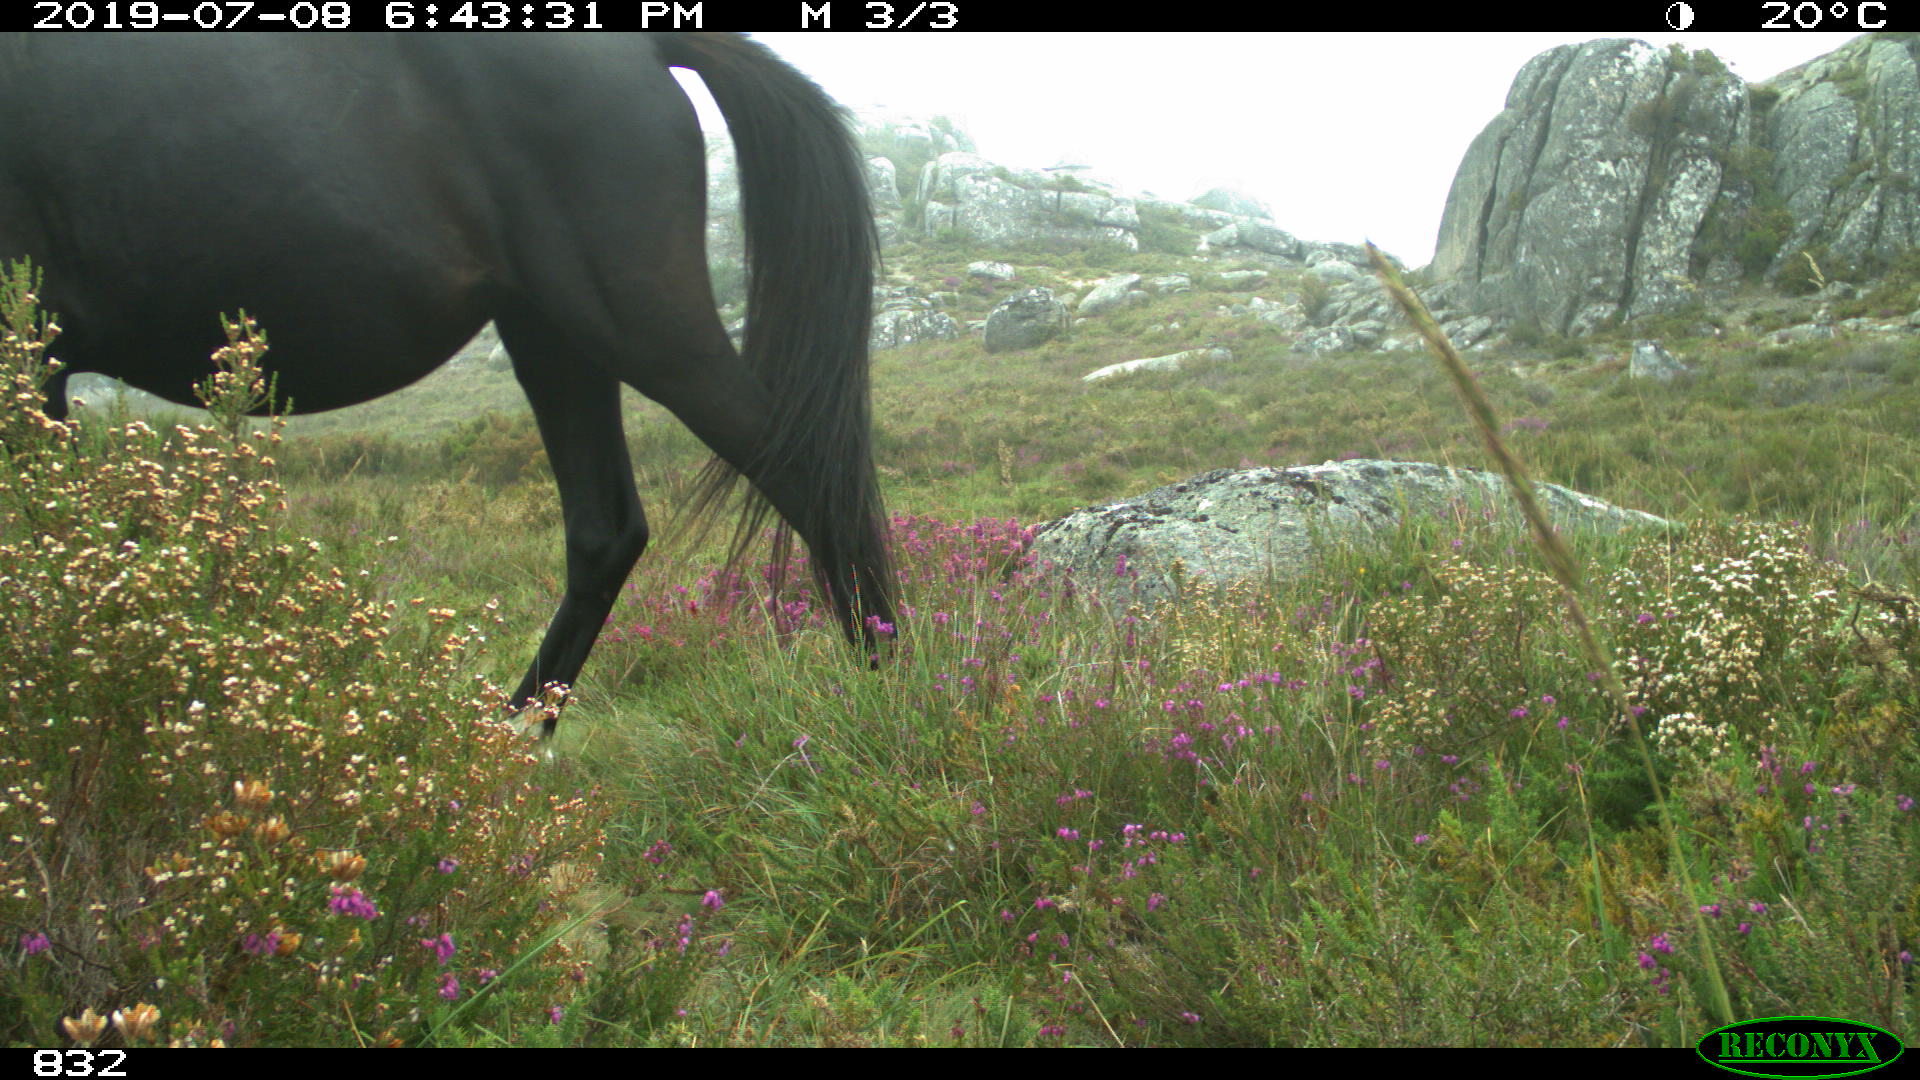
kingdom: Animalia
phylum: Chordata
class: Mammalia
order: Perissodactyla
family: Equidae
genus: Equus
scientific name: Equus caballus
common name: Horse
